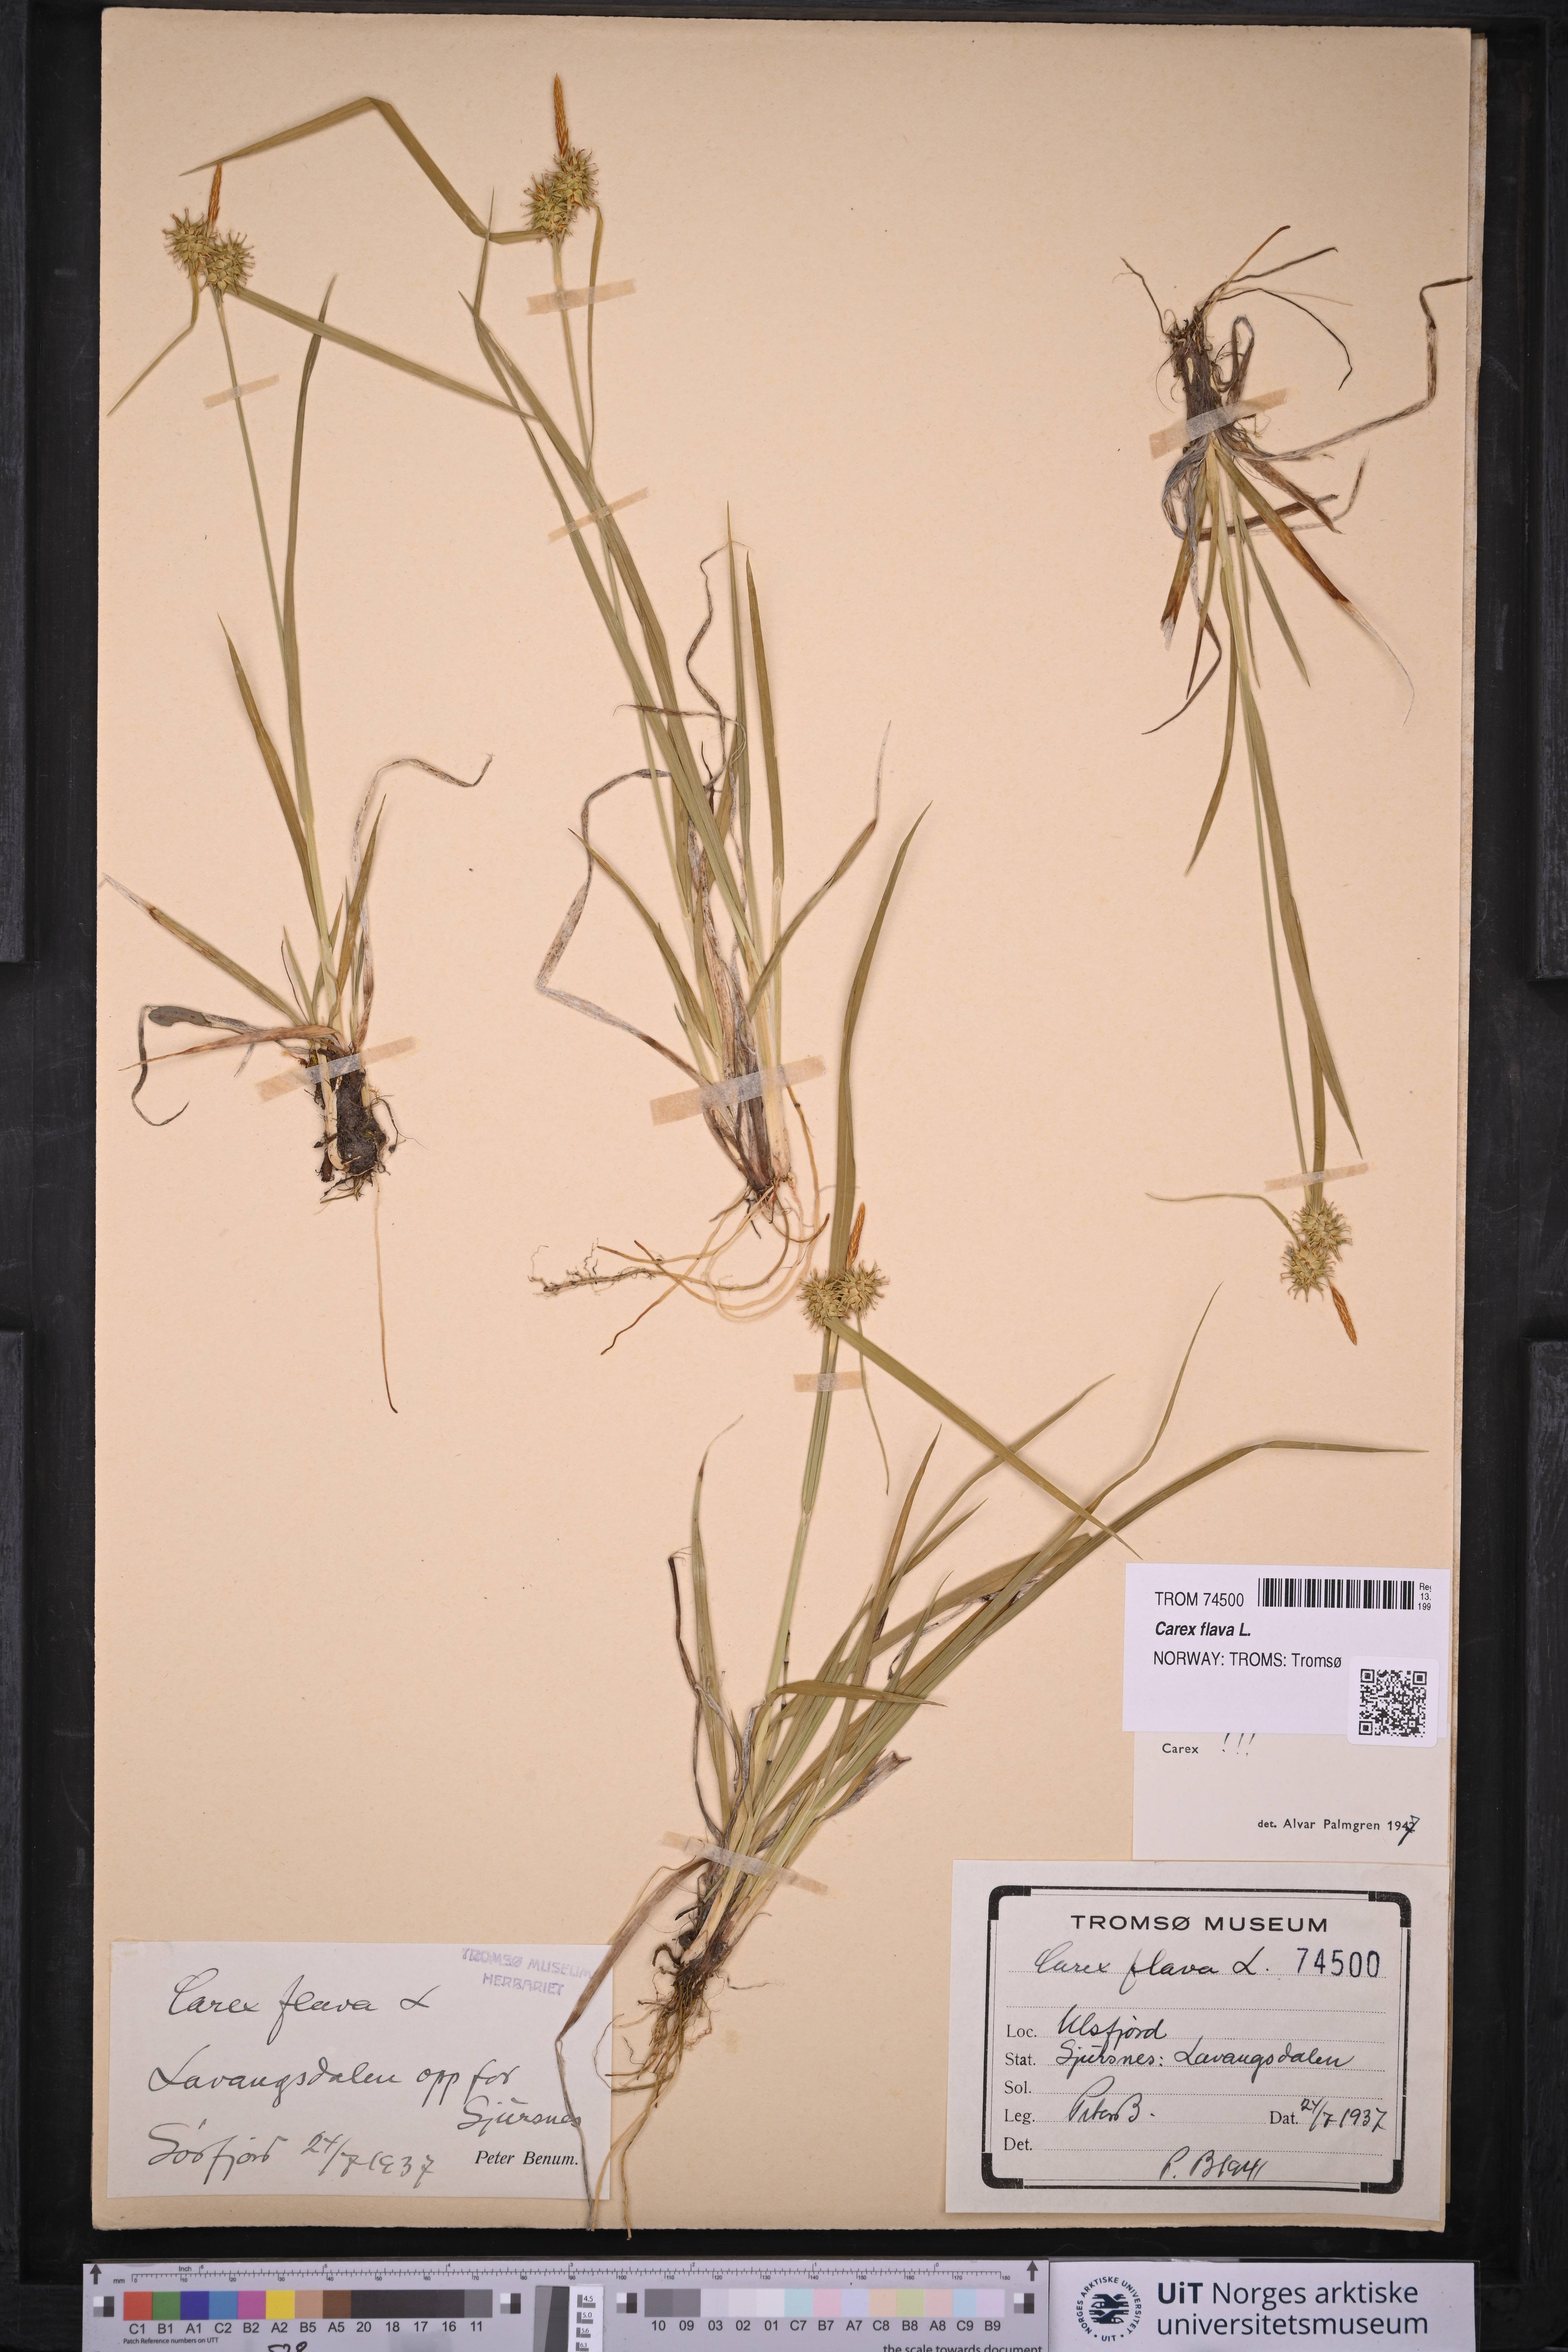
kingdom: Plantae
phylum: Tracheophyta
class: Liliopsida
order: Poales
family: Cyperaceae
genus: Carex
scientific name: Carex flava
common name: Large yellow-sedge
